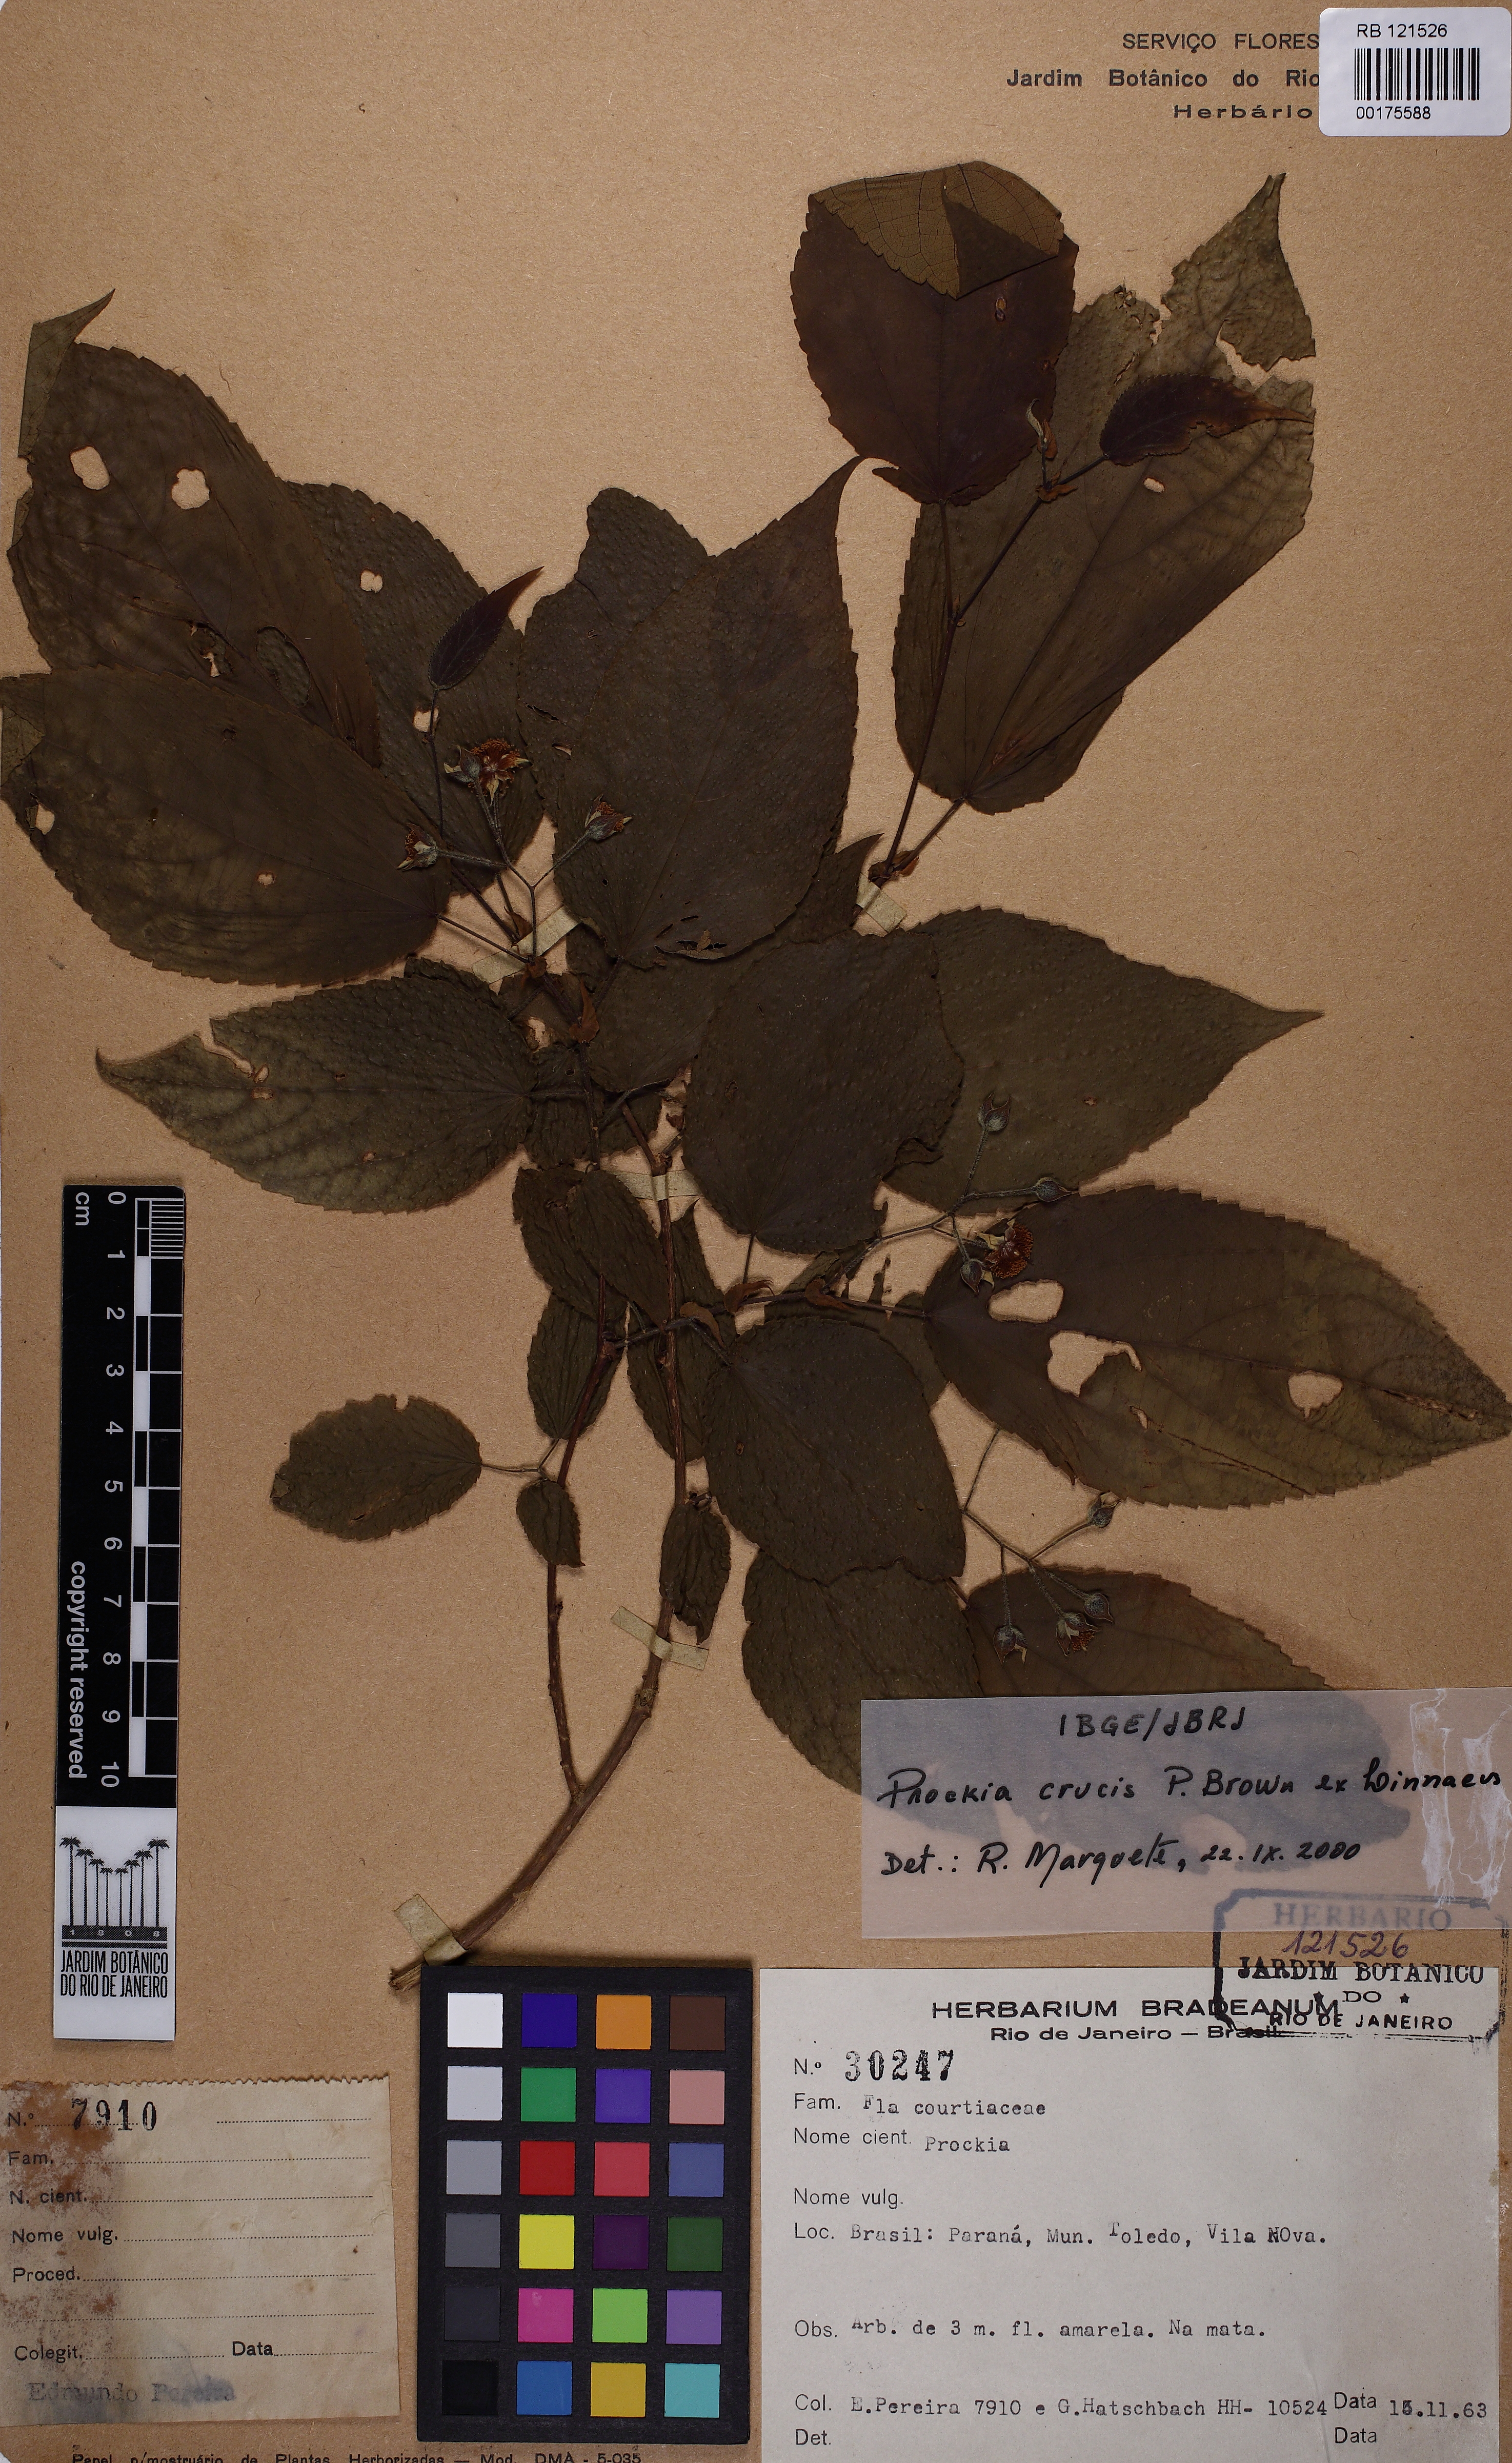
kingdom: Plantae
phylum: Tracheophyta
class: Magnoliopsida
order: Malpighiales
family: Salicaceae
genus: Prockia
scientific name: Prockia crucis
